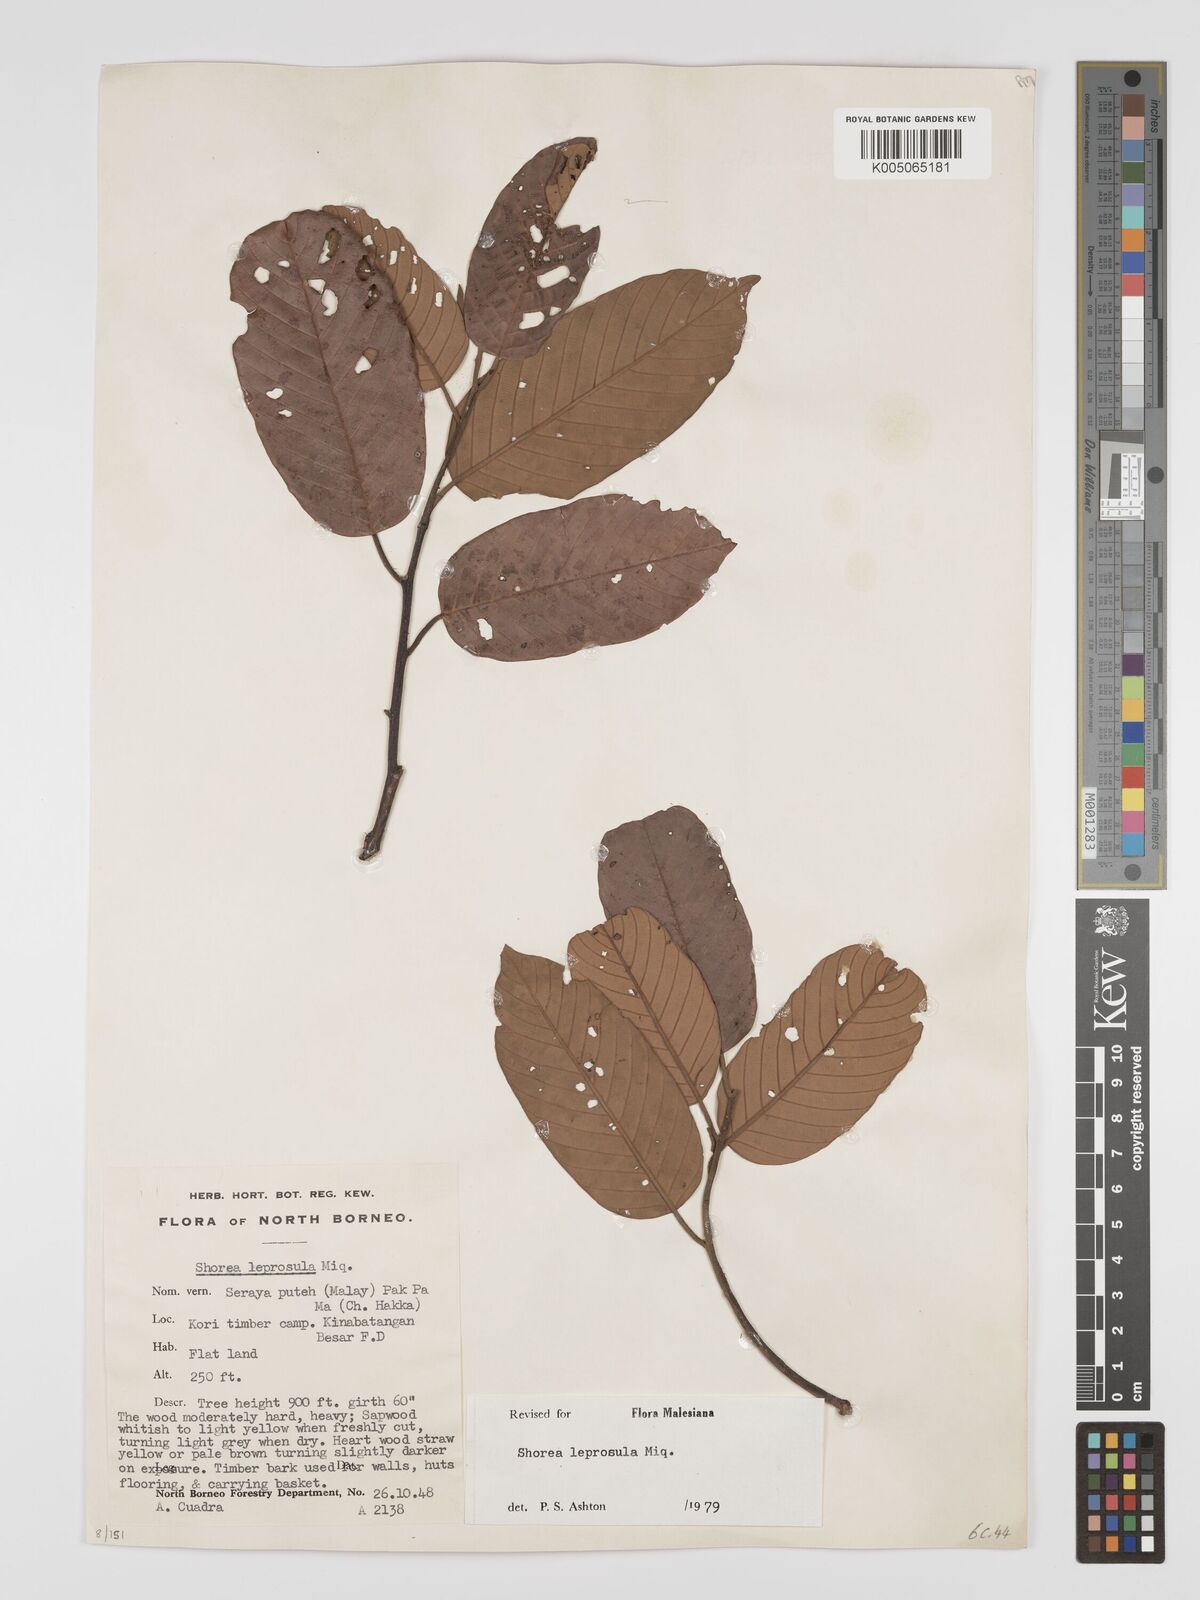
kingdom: Plantae
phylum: Tracheophyta
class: Magnoliopsida
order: Malvales
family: Dipterocarpaceae
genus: Shorea
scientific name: Shorea leprosula
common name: Light red meranti
